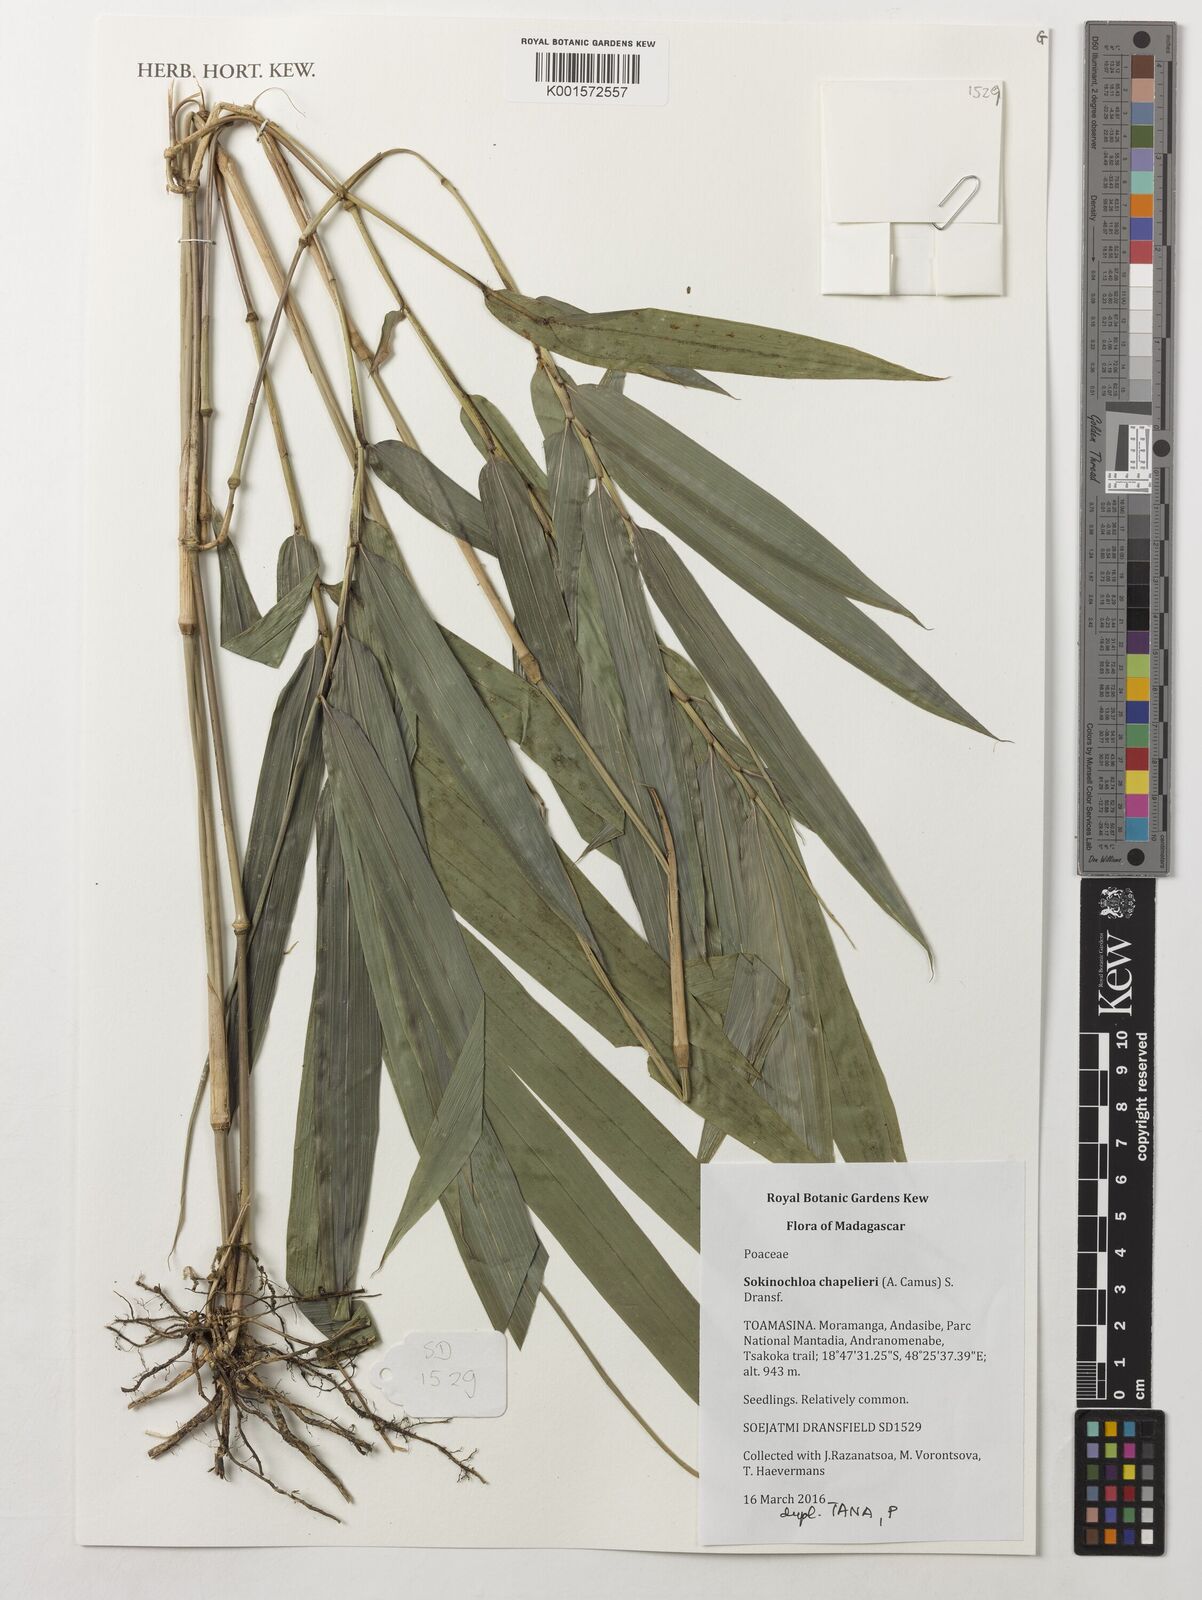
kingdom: Plantae
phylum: Tracheophyta
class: Liliopsida
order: Poales
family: Poaceae
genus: Sokinochloa
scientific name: Sokinochloa chapelieri
